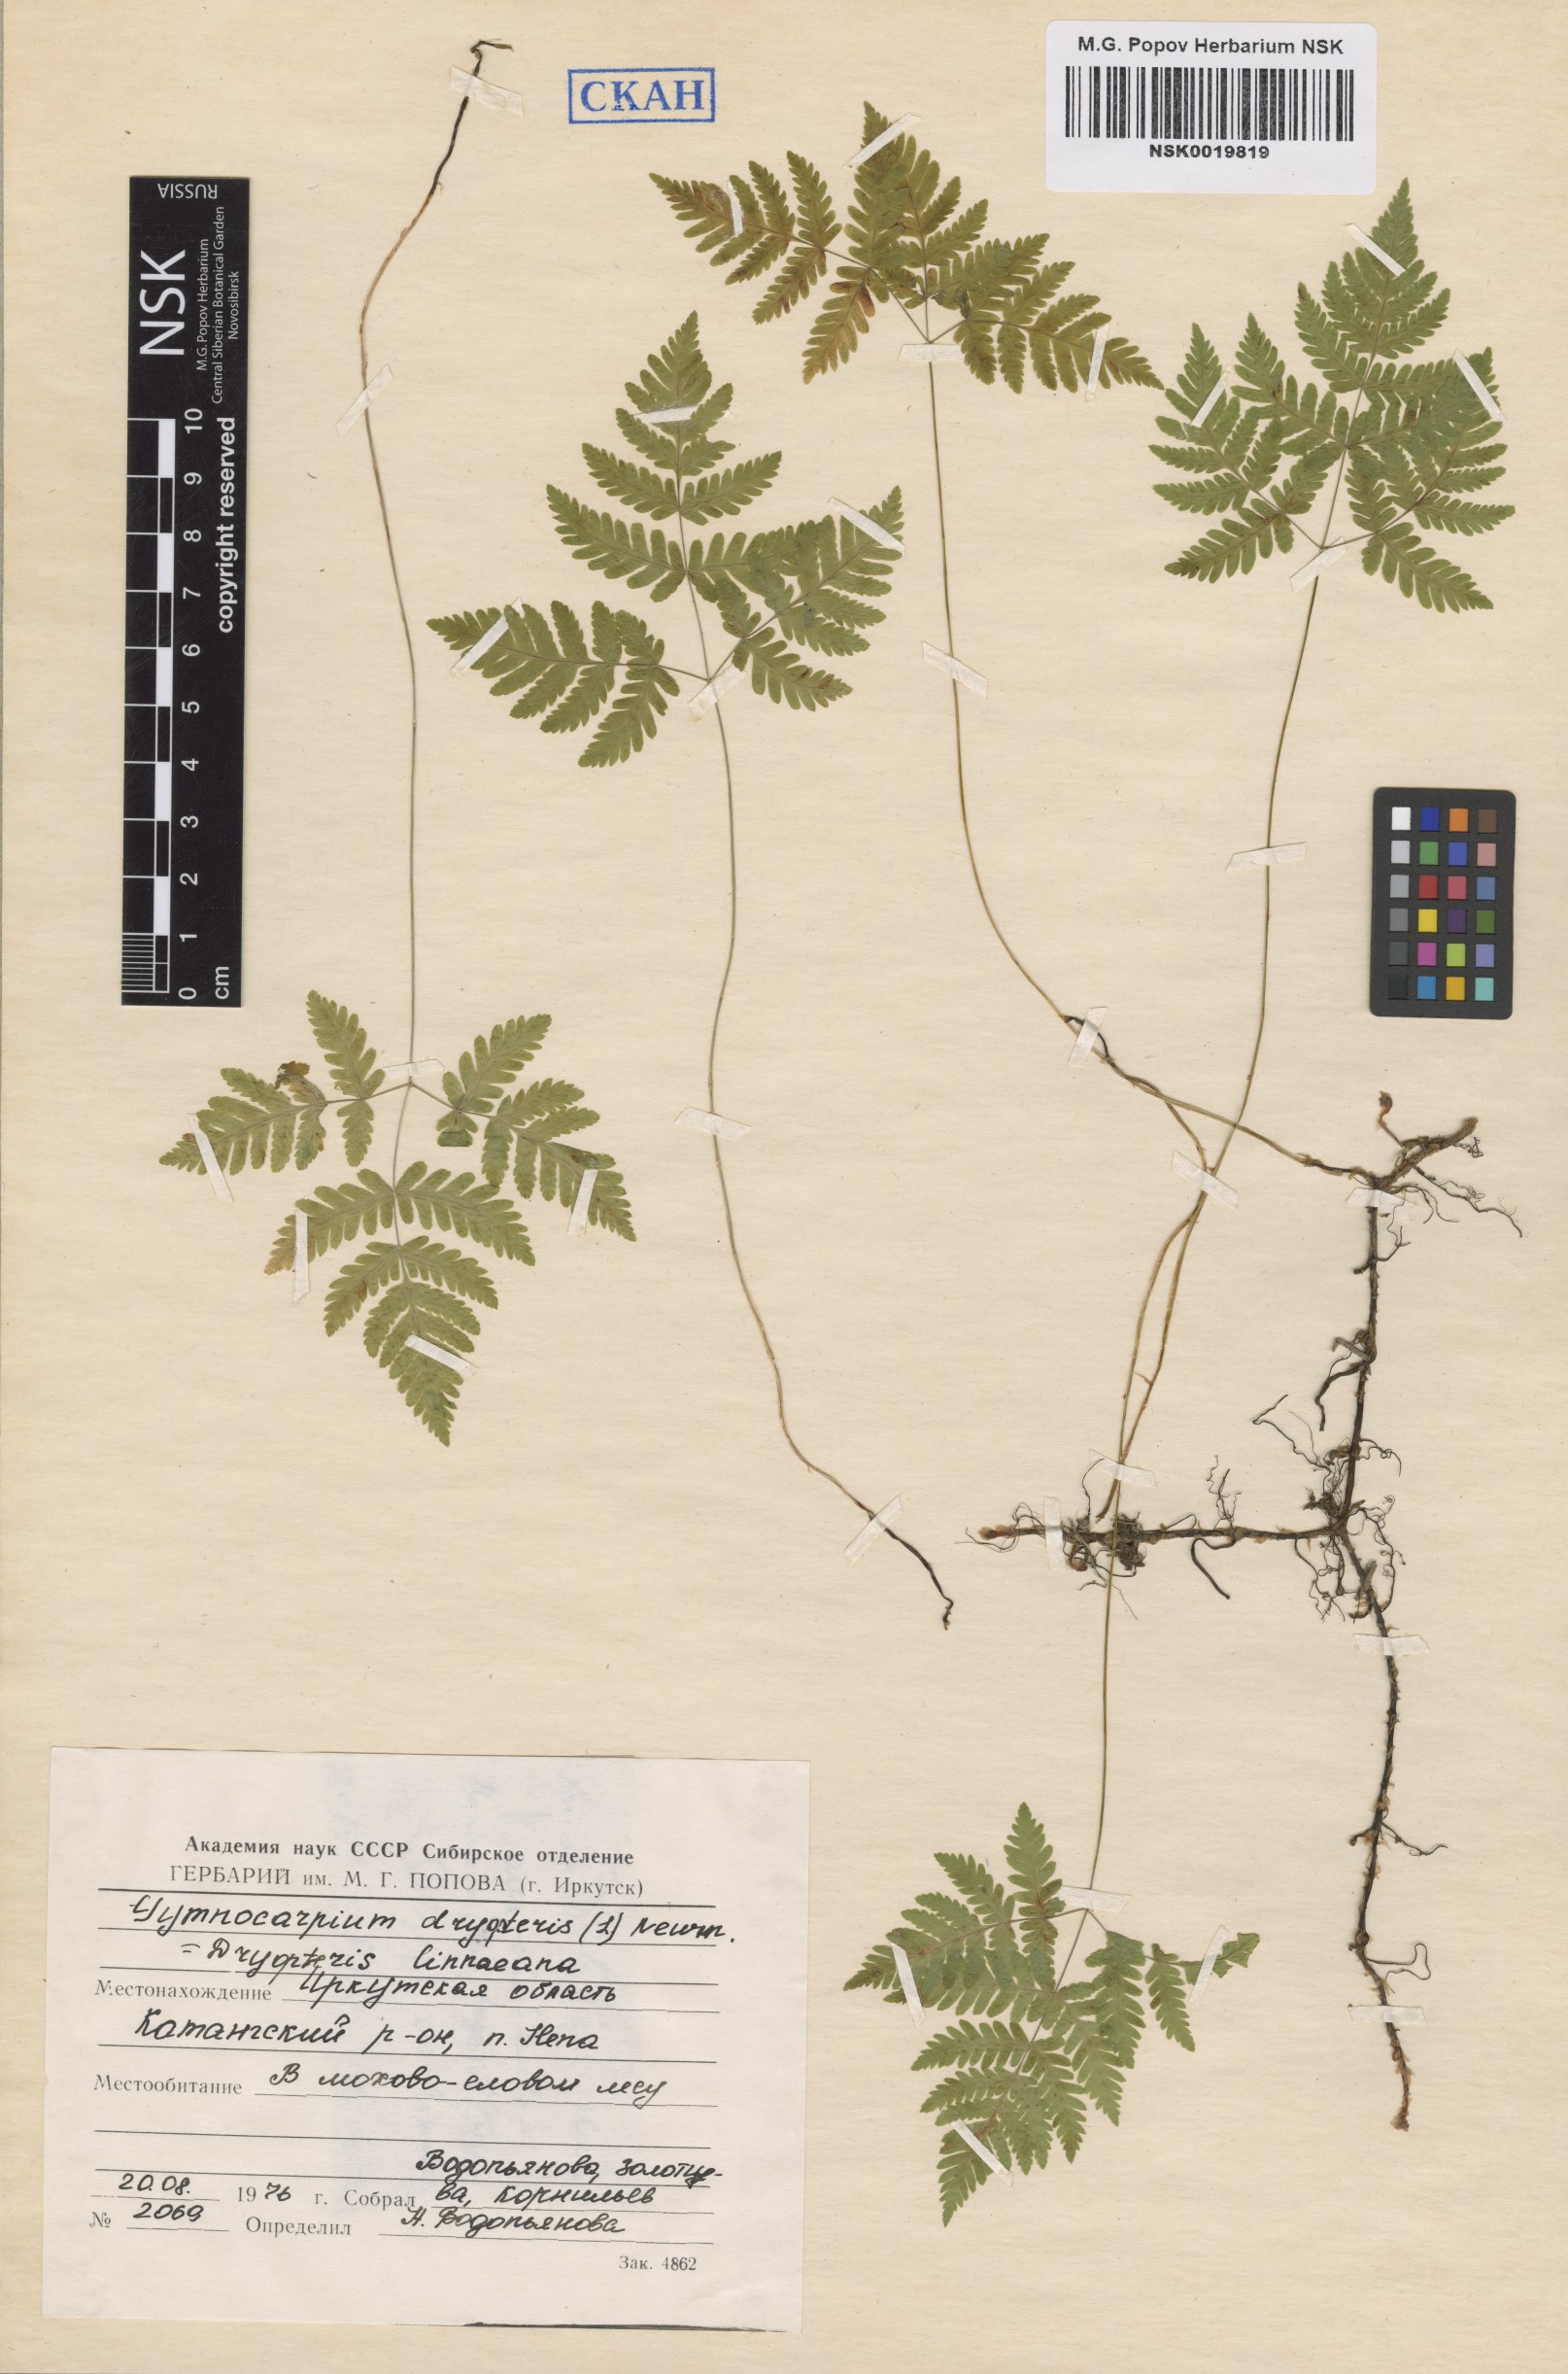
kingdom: Plantae
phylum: Tracheophyta
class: Polypodiopsida
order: Polypodiales
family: Cystopteridaceae
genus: Gymnocarpium
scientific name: Gymnocarpium dryopteris
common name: Oak fern
